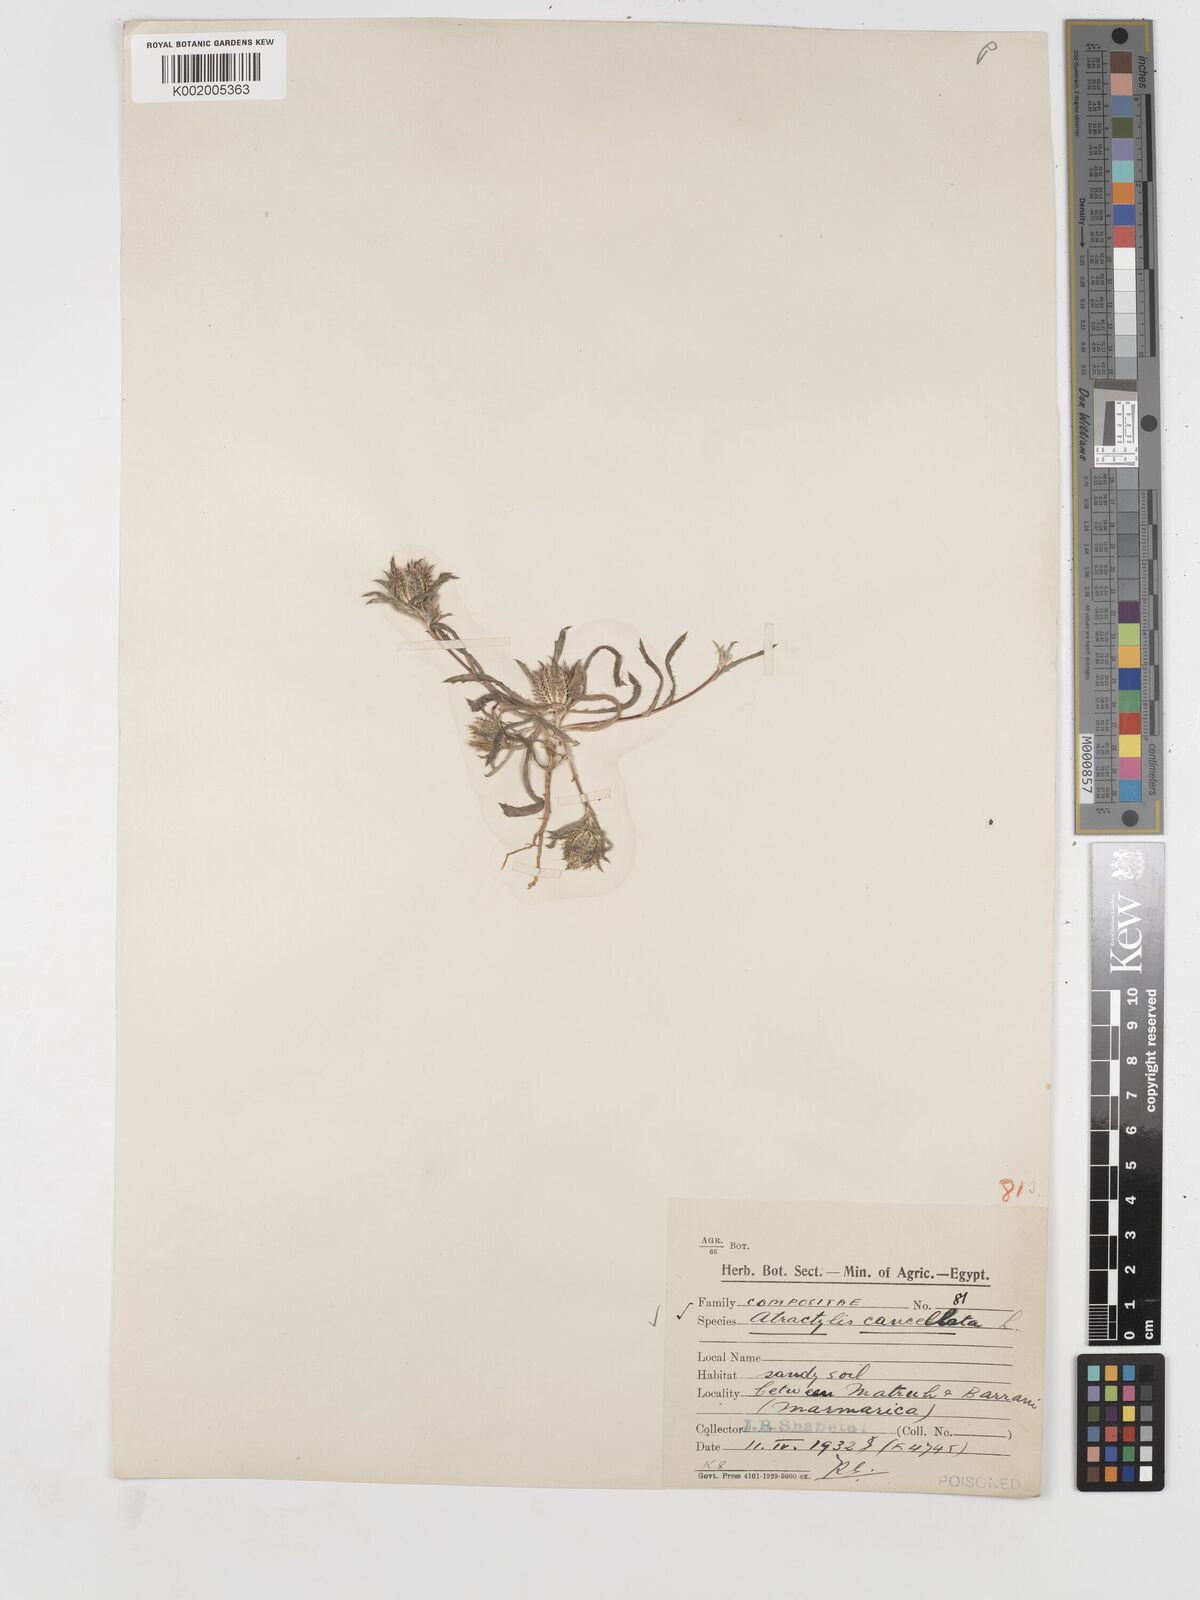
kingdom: Plantae
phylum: Tracheophyta
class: Magnoliopsida
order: Asterales
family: Asteraceae
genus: Atractylis
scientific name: Atractylis cancellata
